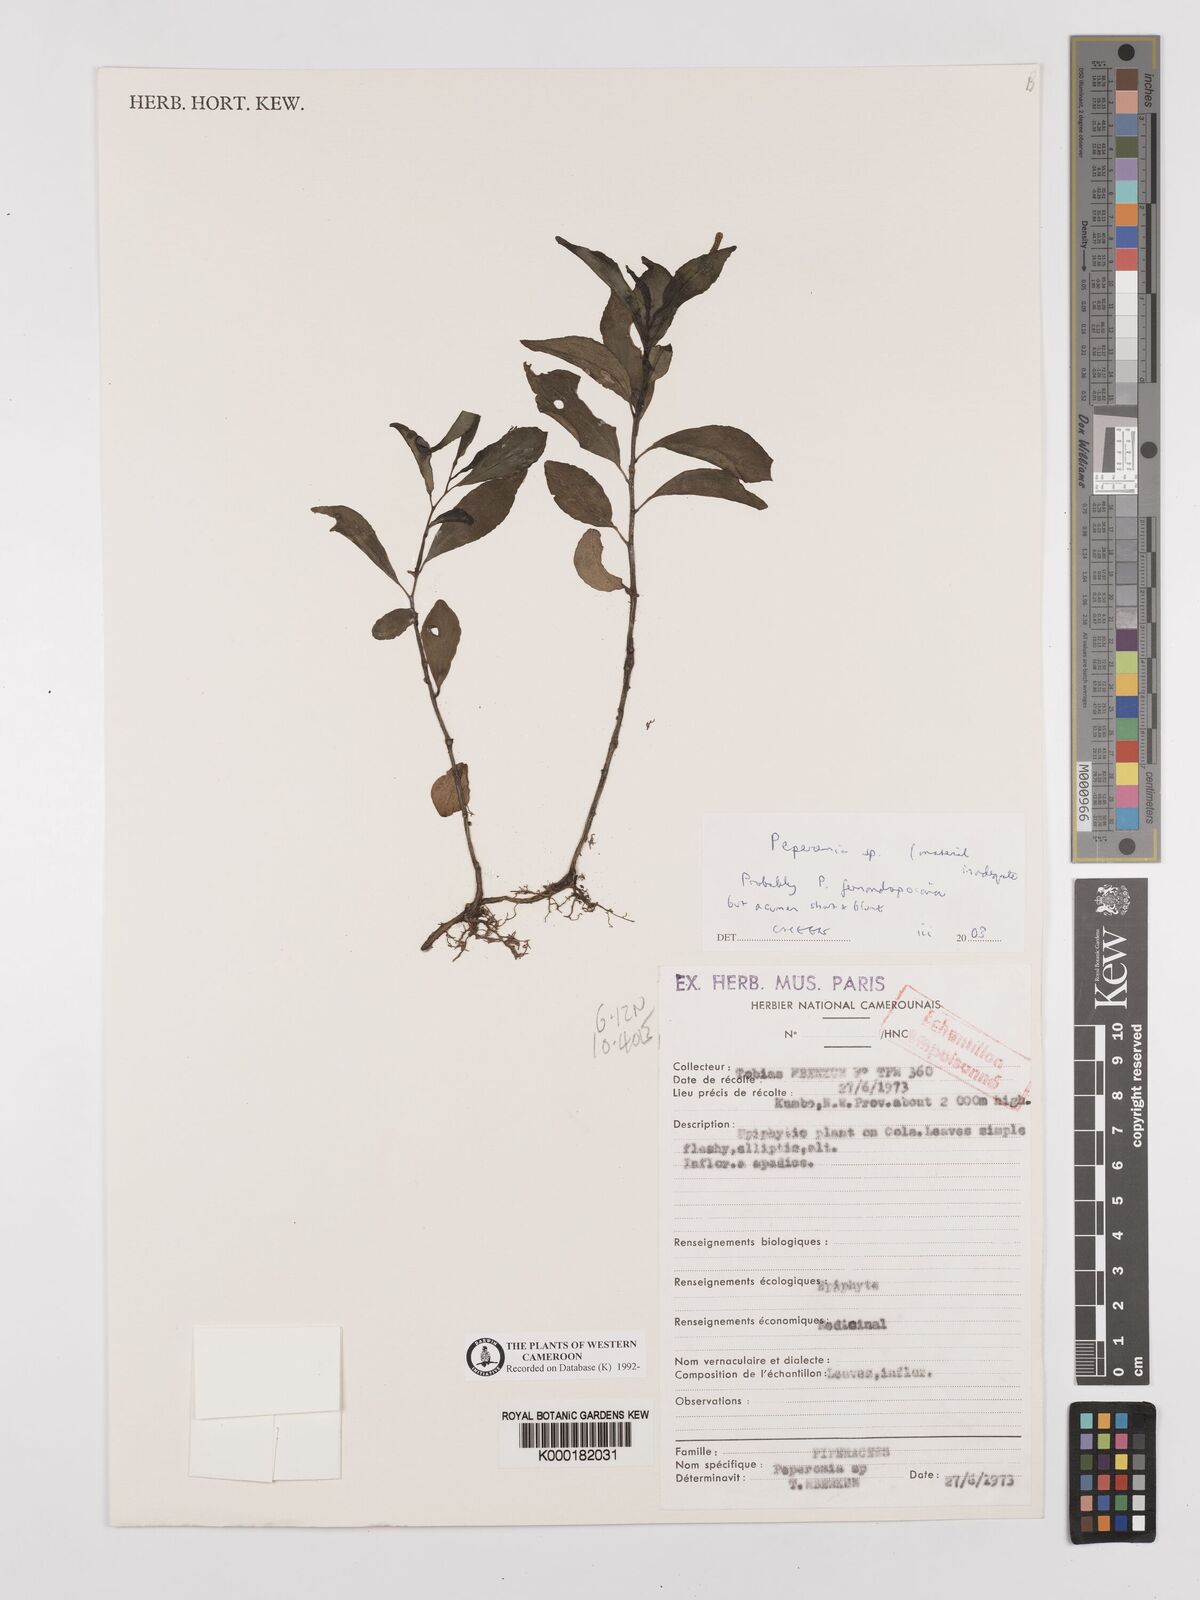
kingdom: Plantae
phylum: Tracheophyta
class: Magnoliopsida
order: Piperales
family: Piperaceae
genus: Peperomia
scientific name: Peperomia
